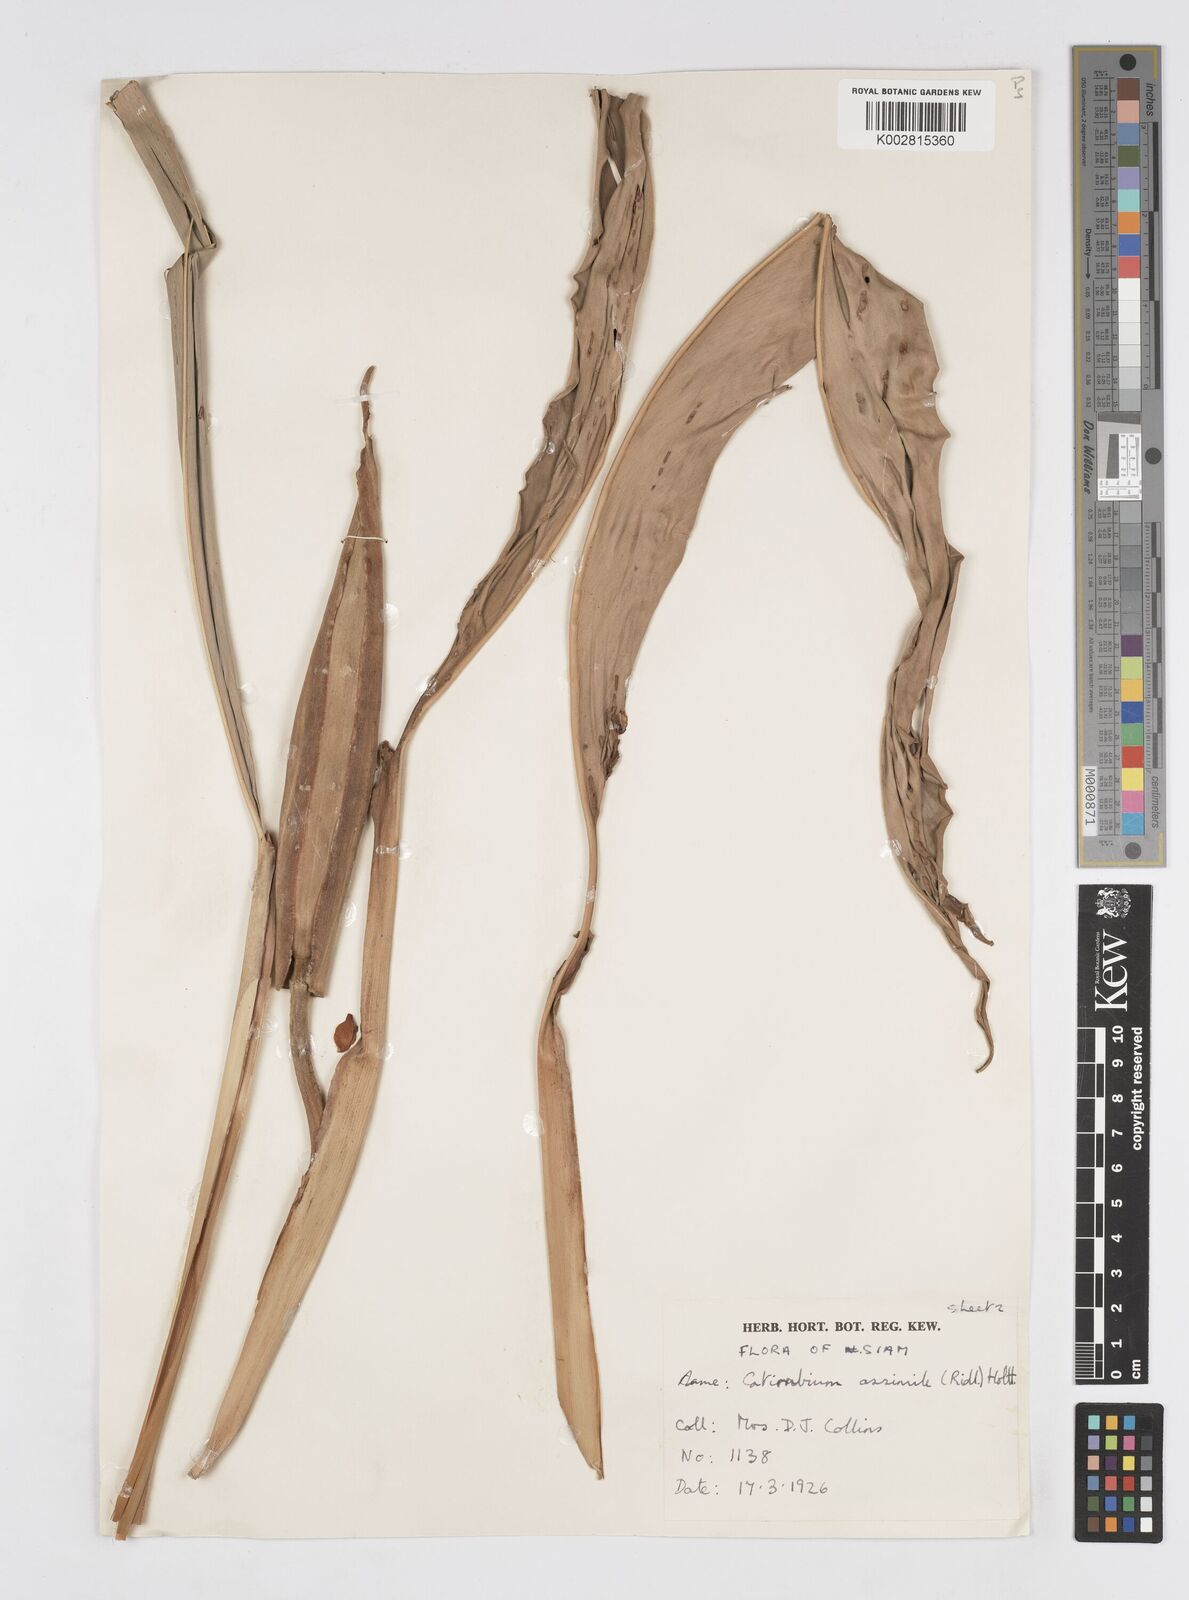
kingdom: Plantae
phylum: Tracheophyta
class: Liliopsida
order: Zingiberales
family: Zingiberaceae
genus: Alpinia
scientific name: Alpinia assimilis
